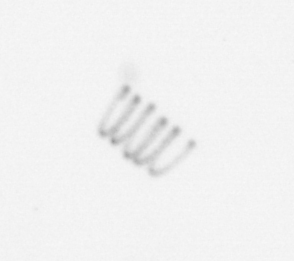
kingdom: Chromista
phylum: Ochrophyta
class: Bacillariophyceae
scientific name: Bacillariophyceae
